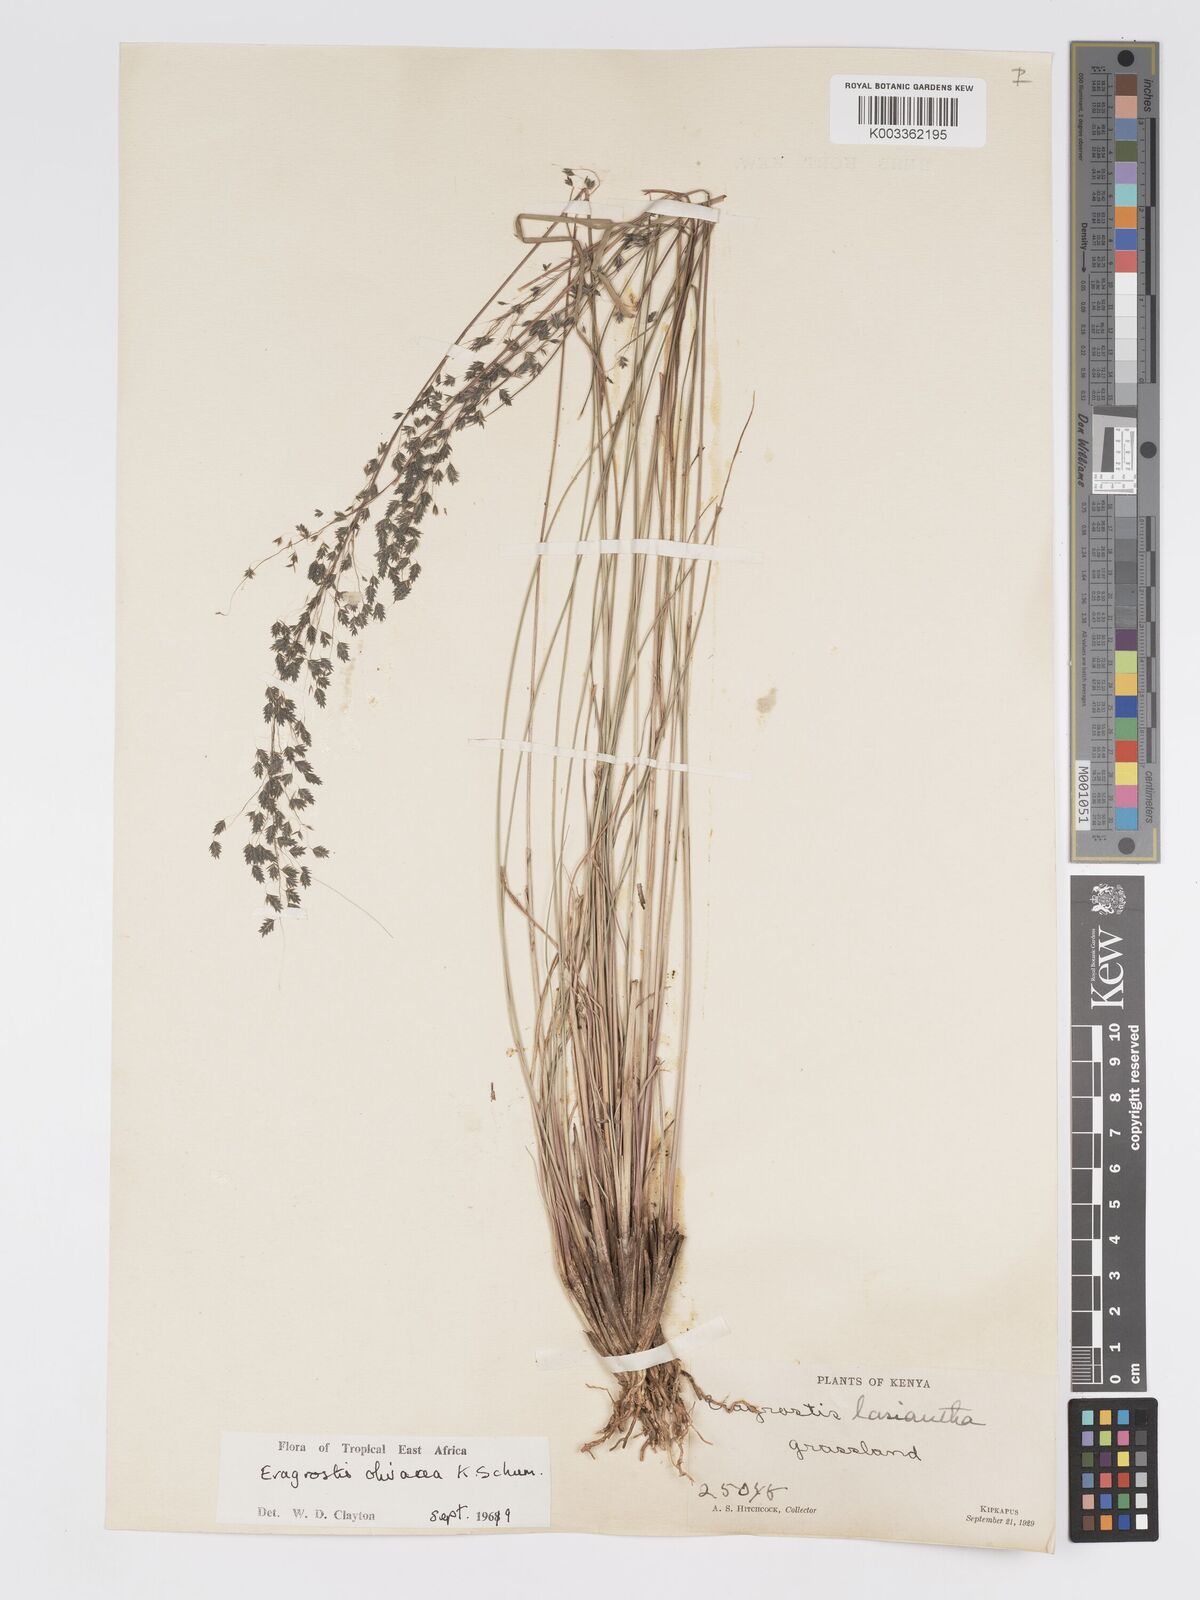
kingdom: Plantae
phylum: Tracheophyta
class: Liliopsida
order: Poales
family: Poaceae
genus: Eragrostis
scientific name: Eragrostis olivacea
